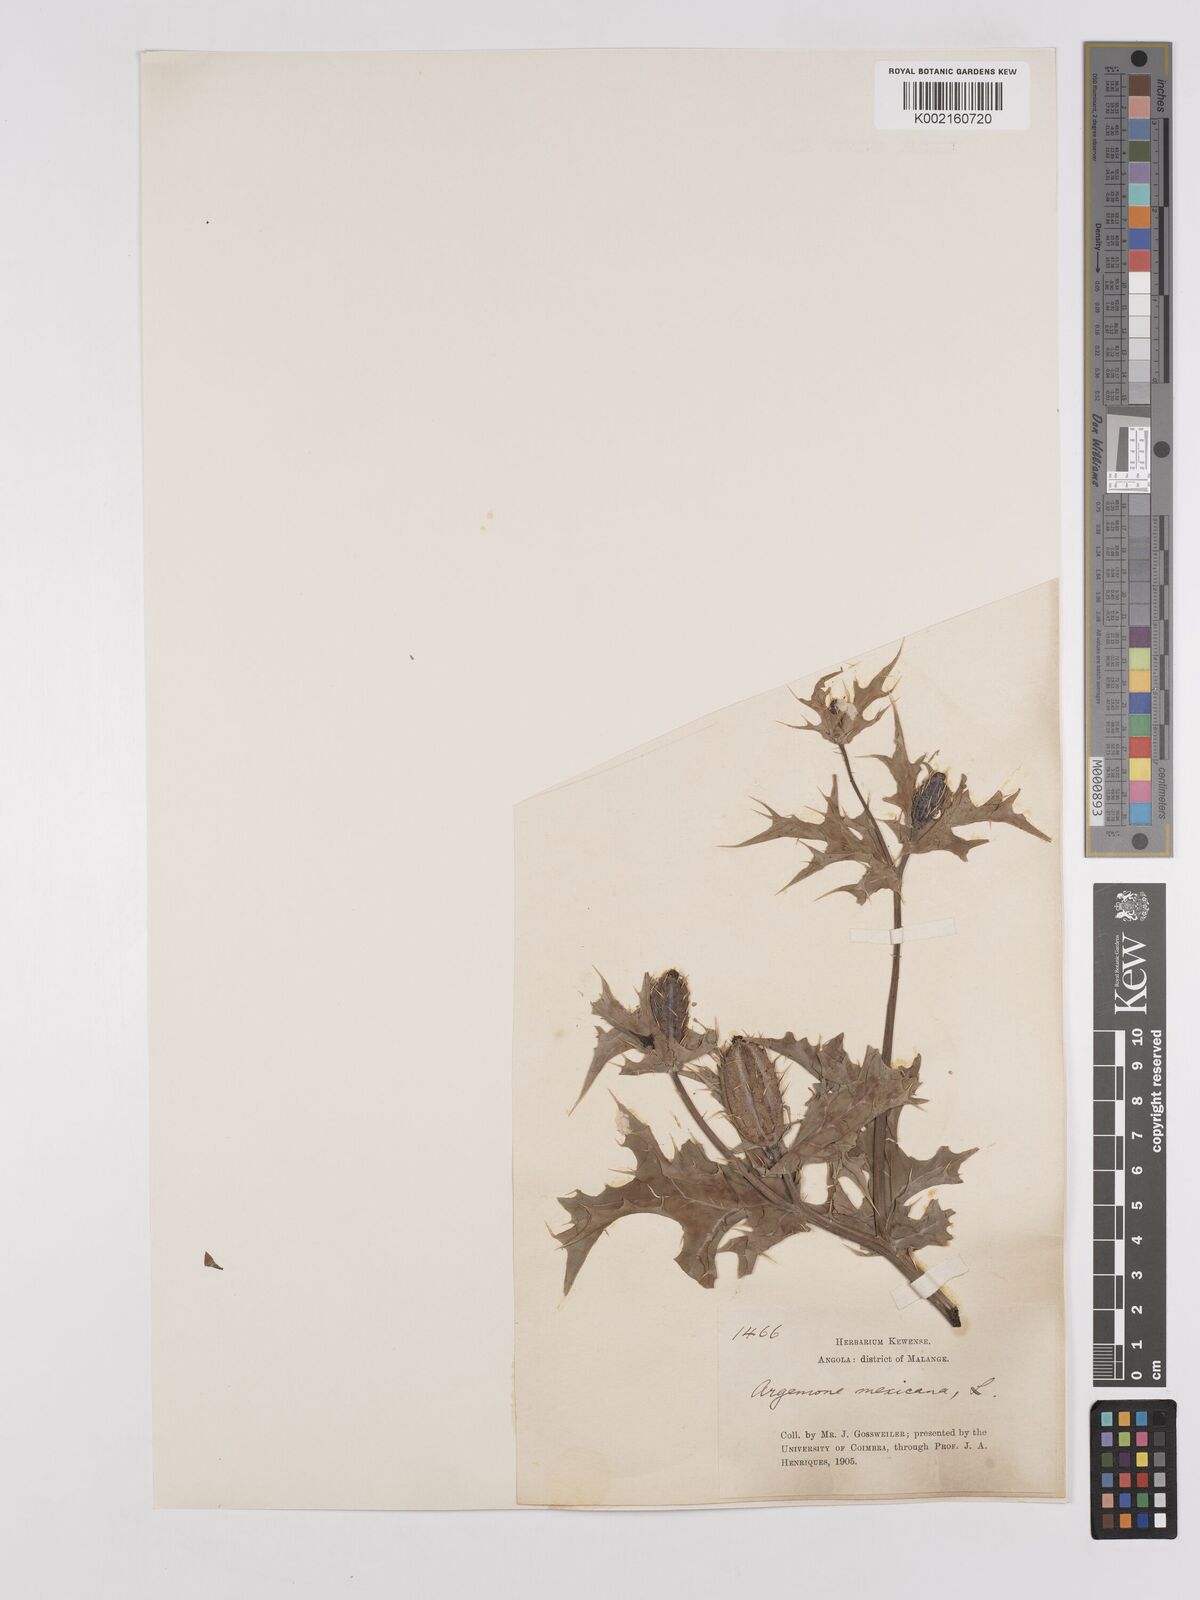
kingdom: Plantae
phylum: Tracheophyta
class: Magnoliopsida
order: Ranunculales
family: Papaveraceae
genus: Argemone
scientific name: Argemone mexicana
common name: Mexican poppy
